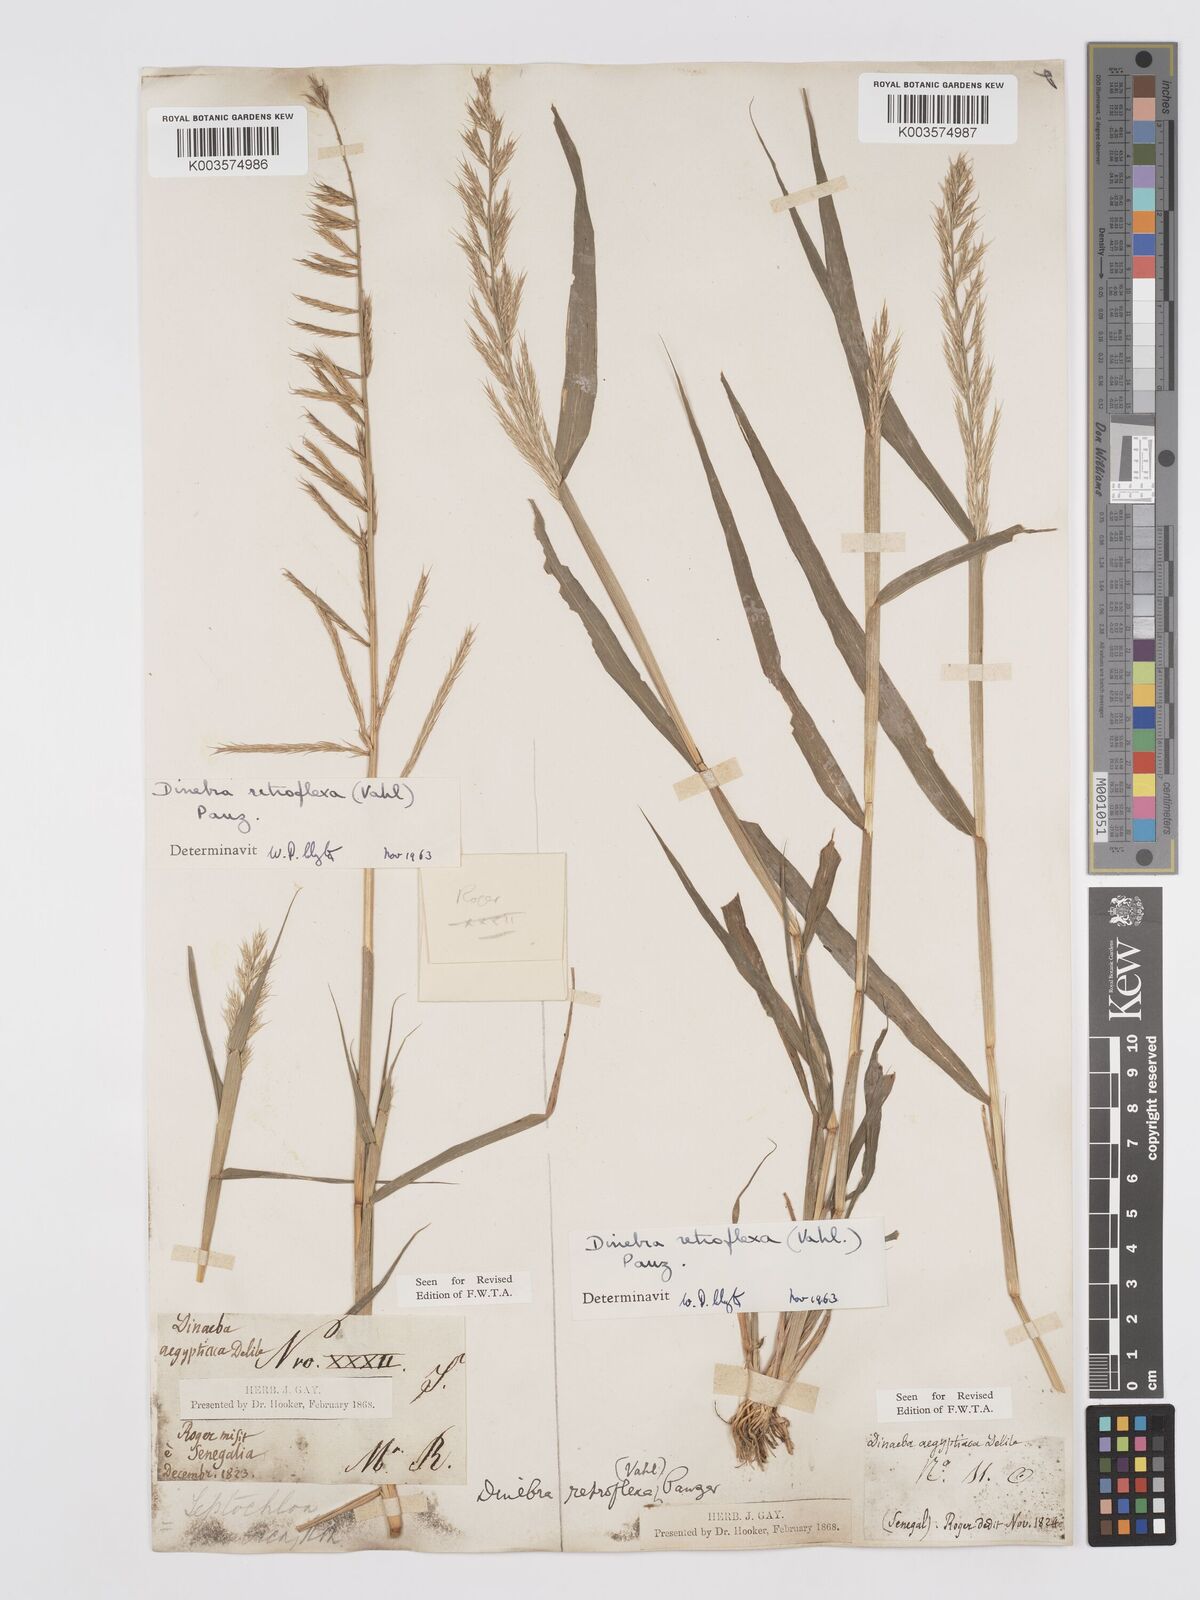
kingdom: Plantae
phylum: Tracheophyta
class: Liliopsida
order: Poales
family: Poaceae
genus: Dinebra
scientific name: Dinebra retroflexa
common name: Viper grass
